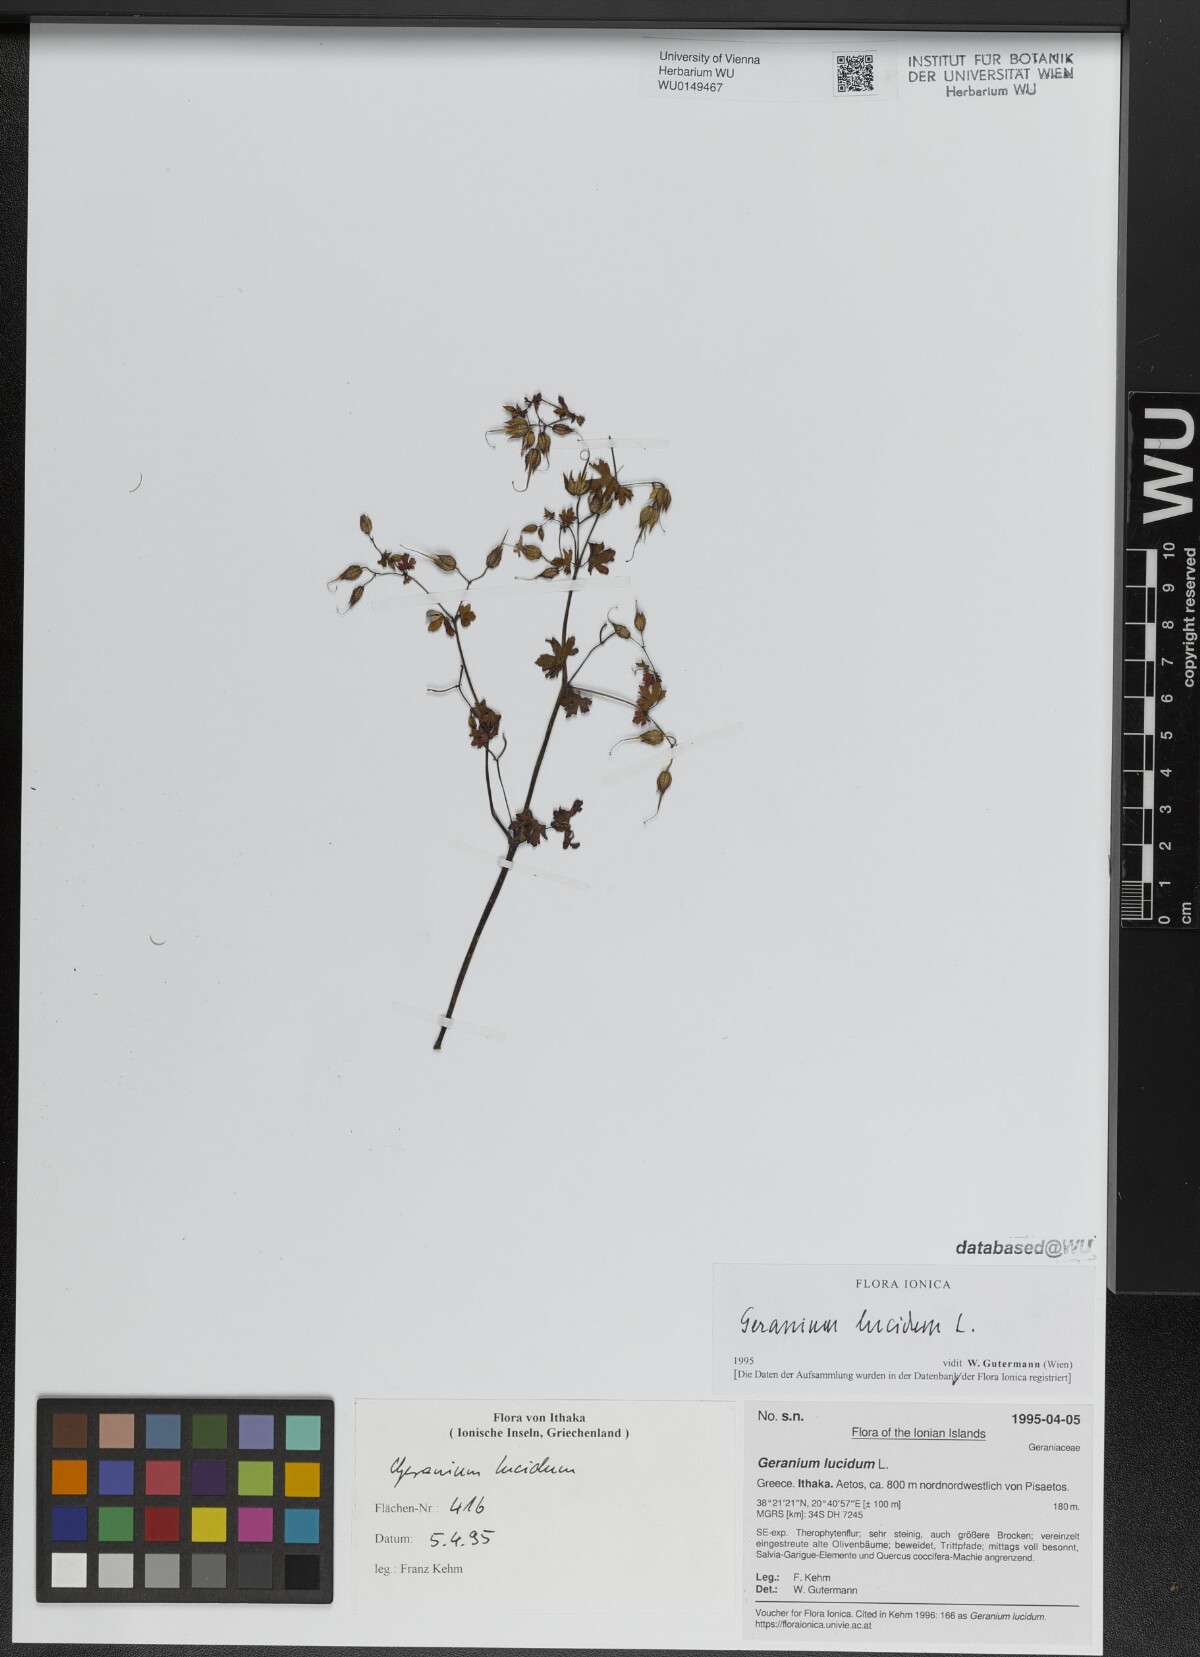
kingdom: Plantae
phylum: Tracheophyta
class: Magnoliopsida
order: Geraniales
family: Geraniaceae
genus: Geranium
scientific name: Geranium lucidum
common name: Shining crane's-bill
